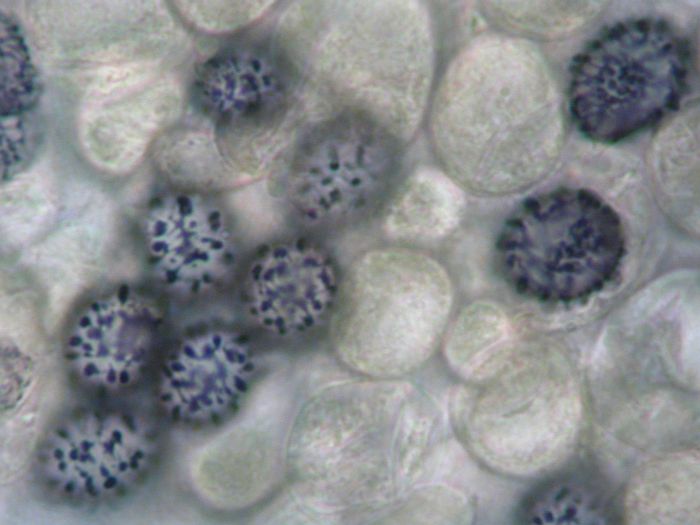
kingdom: Fungi
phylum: Basidiomycota
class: Agaricomycetes
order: Russulales
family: Russulaceae
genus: Russula
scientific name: Russula nitida
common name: året skørhat
